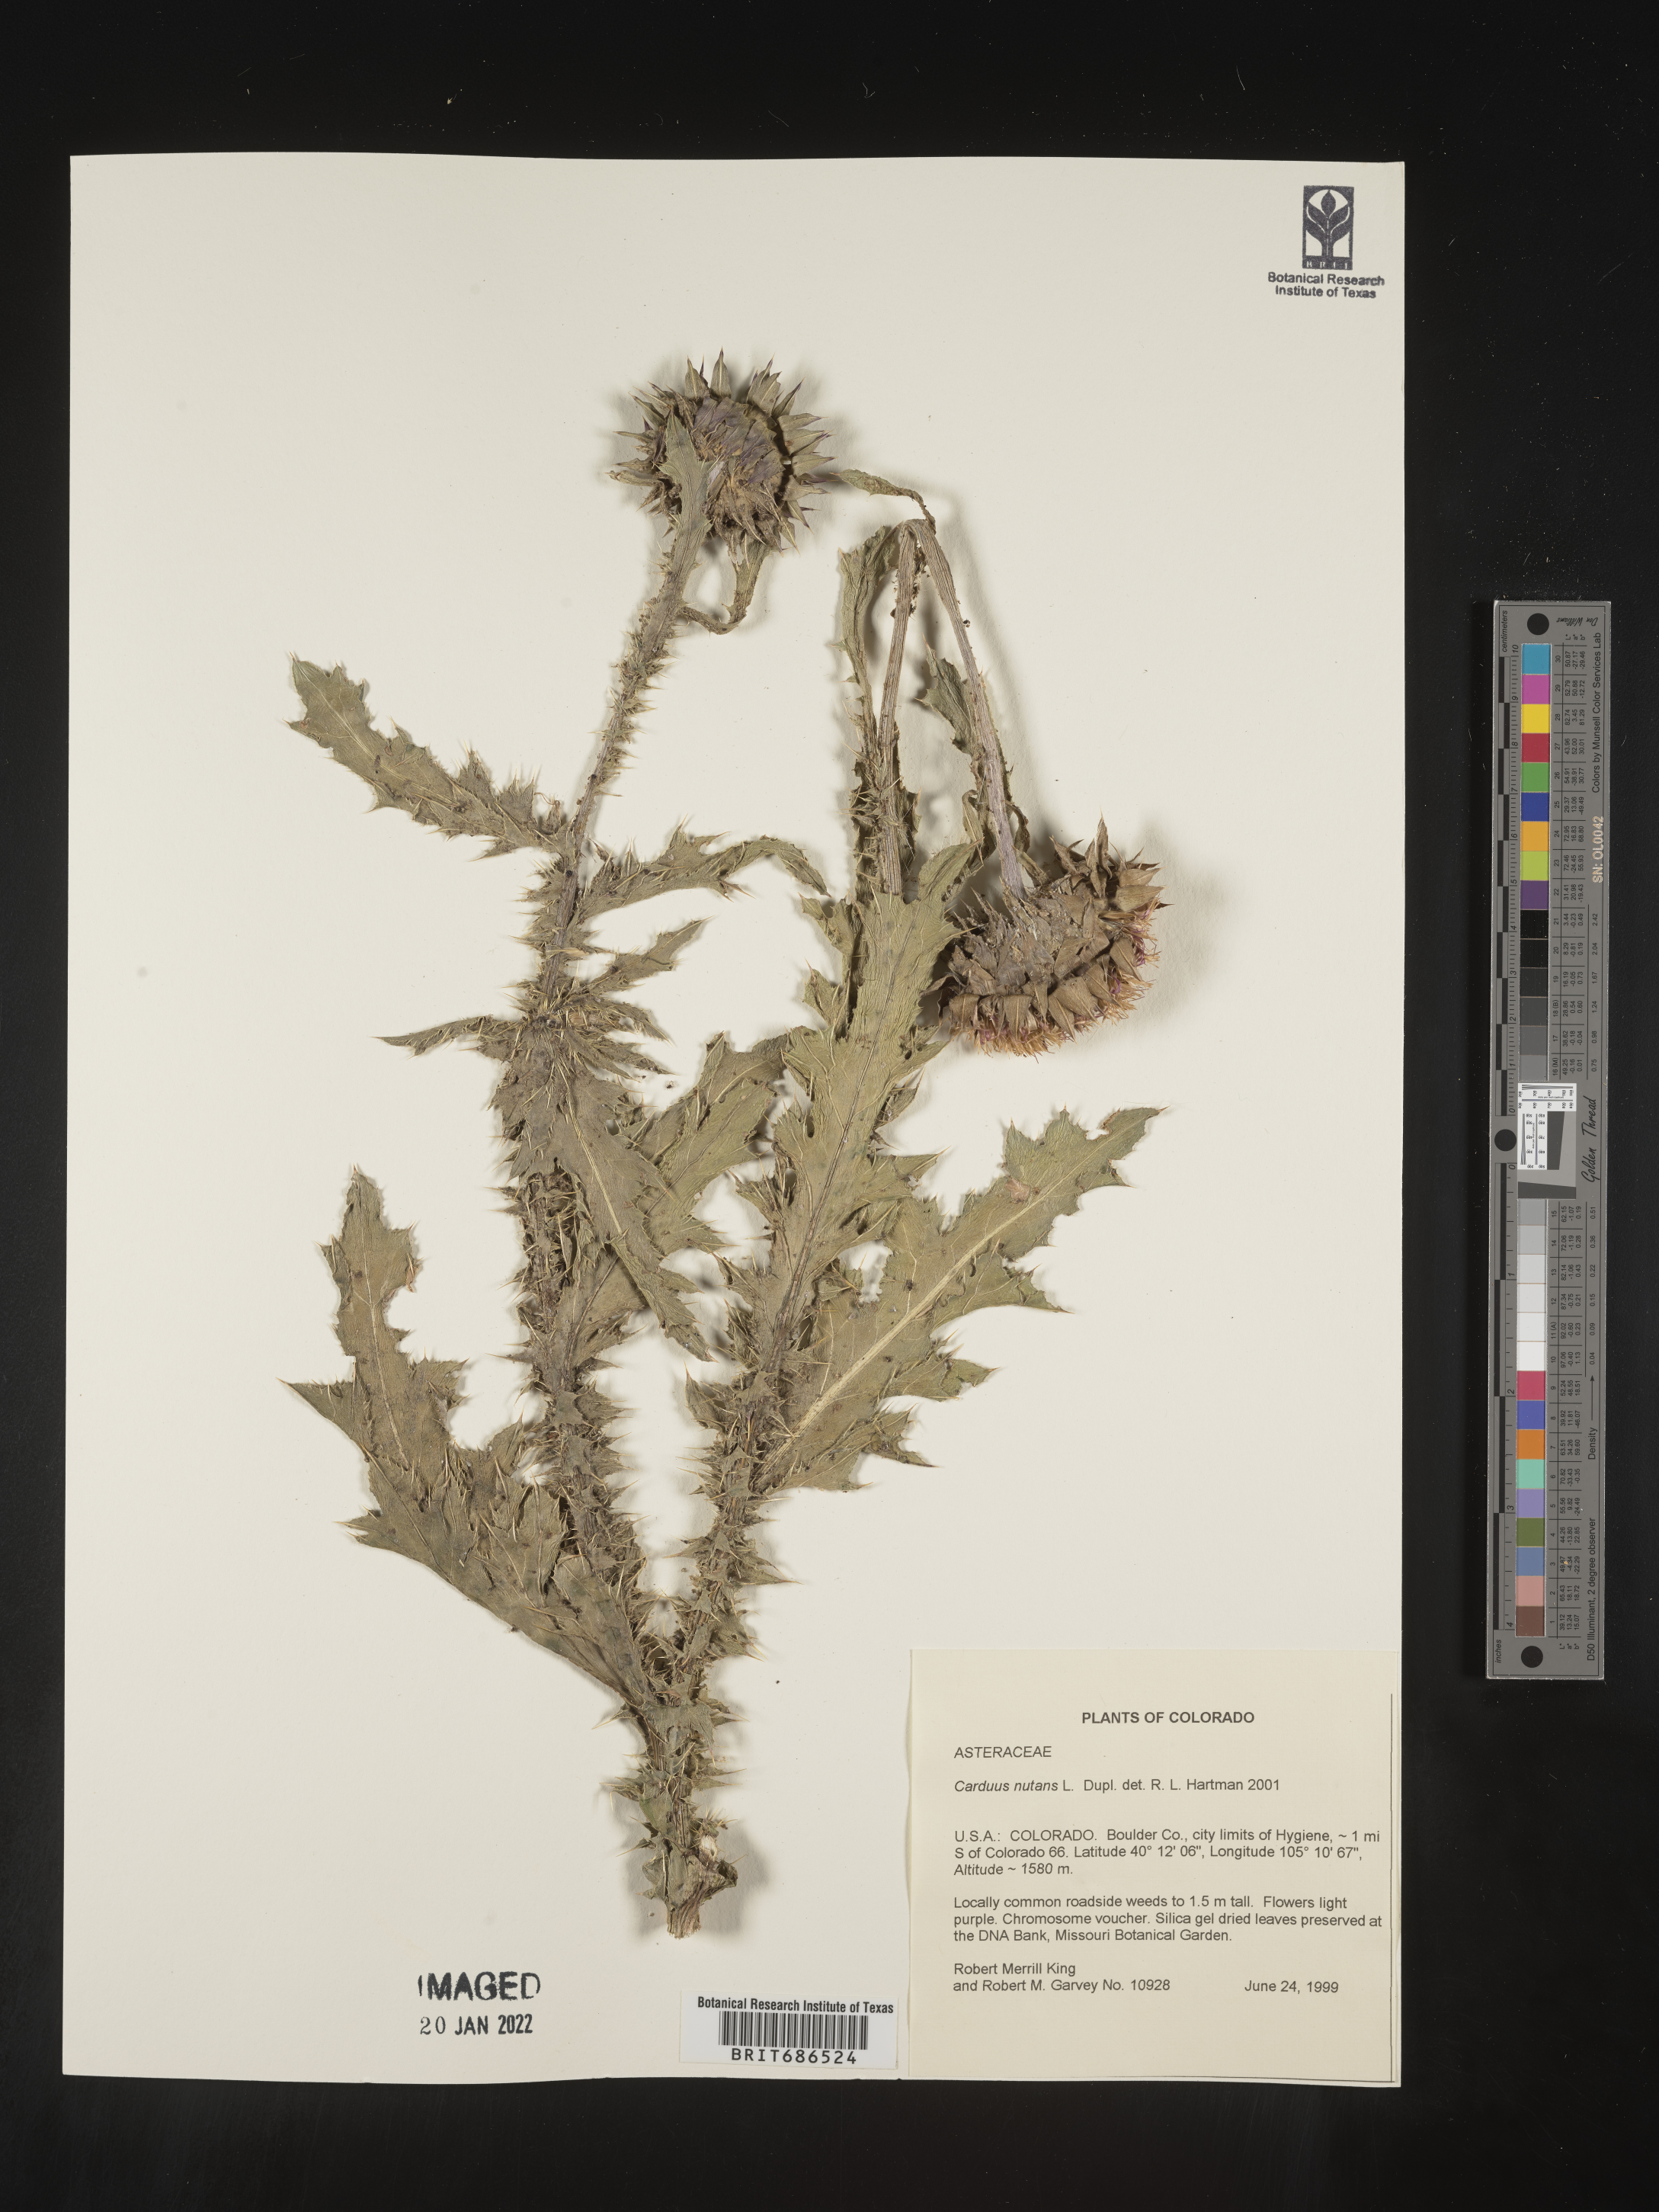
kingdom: Plantae
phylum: Tracheophyta
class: Magnoliopsida
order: Asterales
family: Asteraceae
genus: Carduus
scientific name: Carduus nutans
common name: Musk thistle
